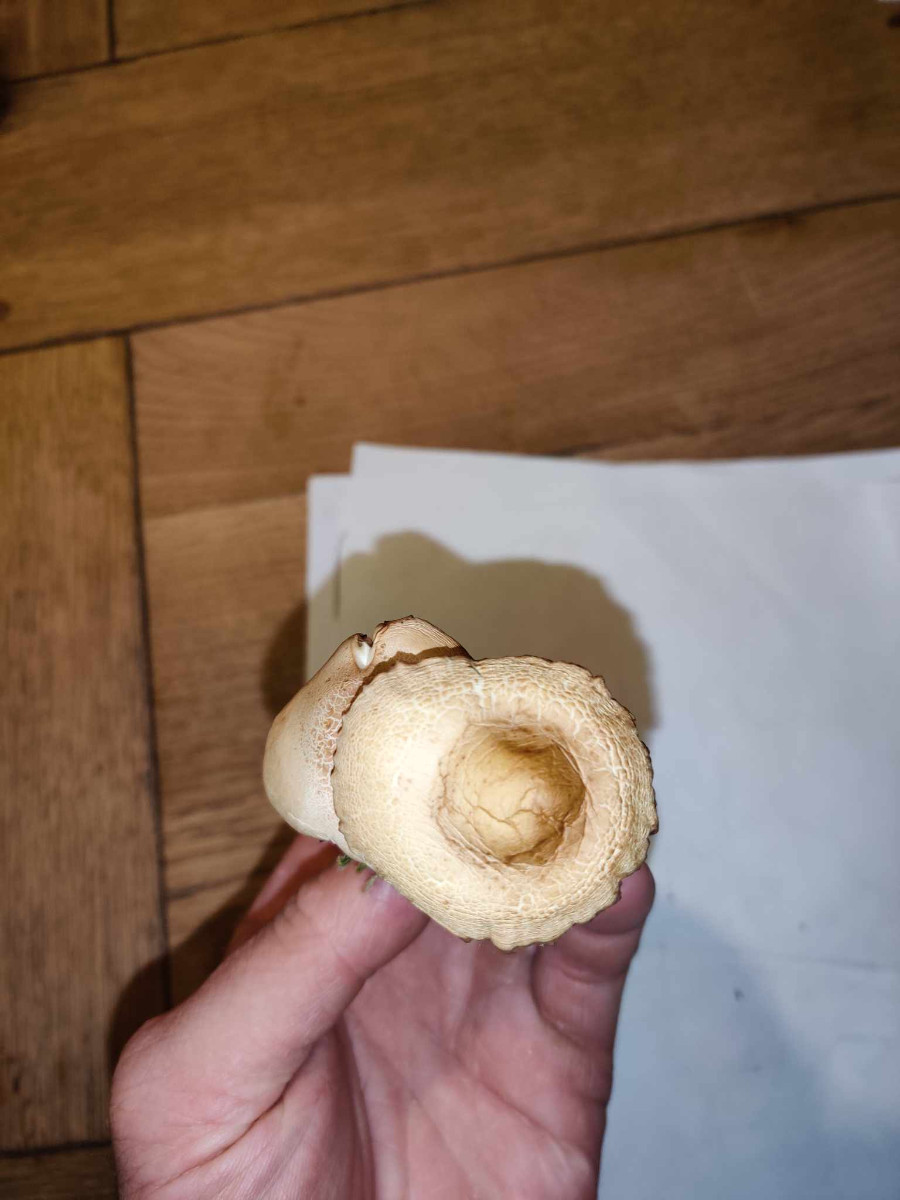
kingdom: Fungi
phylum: Basidiomycota
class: Agaricomycetes
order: Agaricales
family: Marasmiaceae
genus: Marasmius
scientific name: Marasmius oreades
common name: elledans-bruskhat
